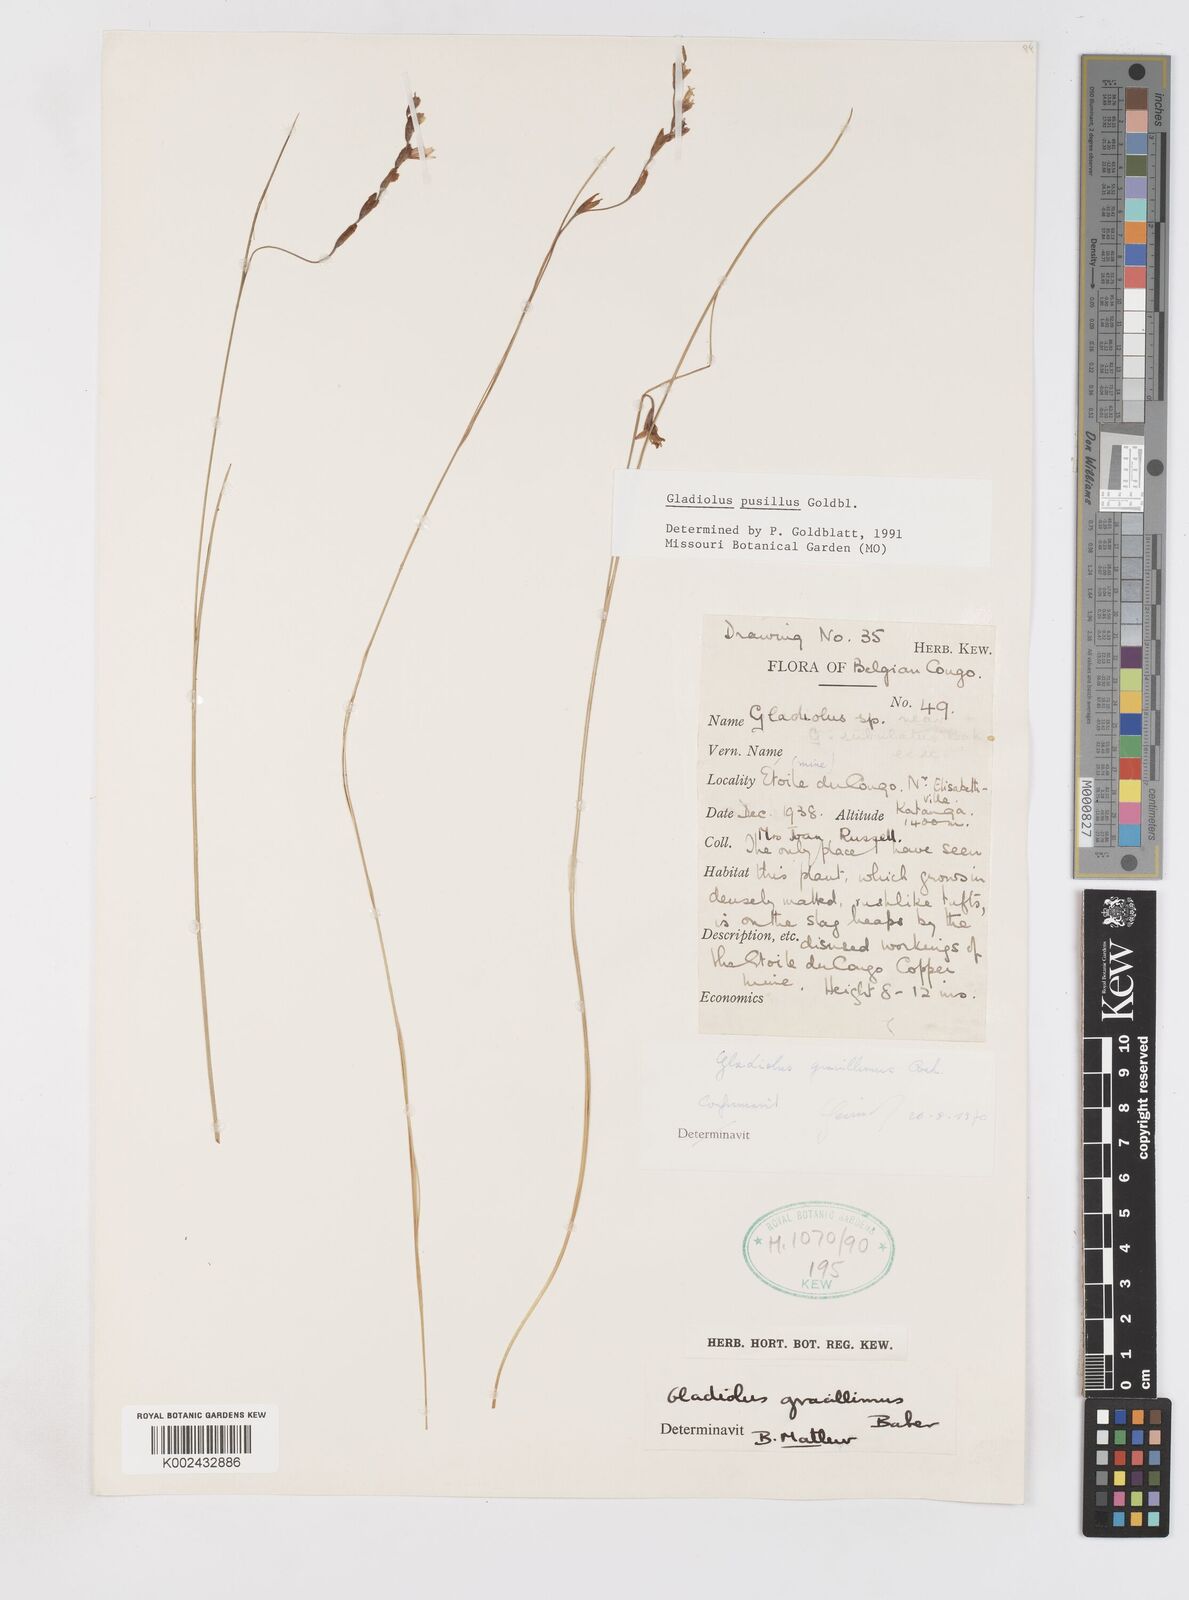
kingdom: Plantae
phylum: Tracheophyta
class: Liliopsida
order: Asparagales
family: Iridaceae
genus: Gladiolus
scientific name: Gladiolus pusillus
